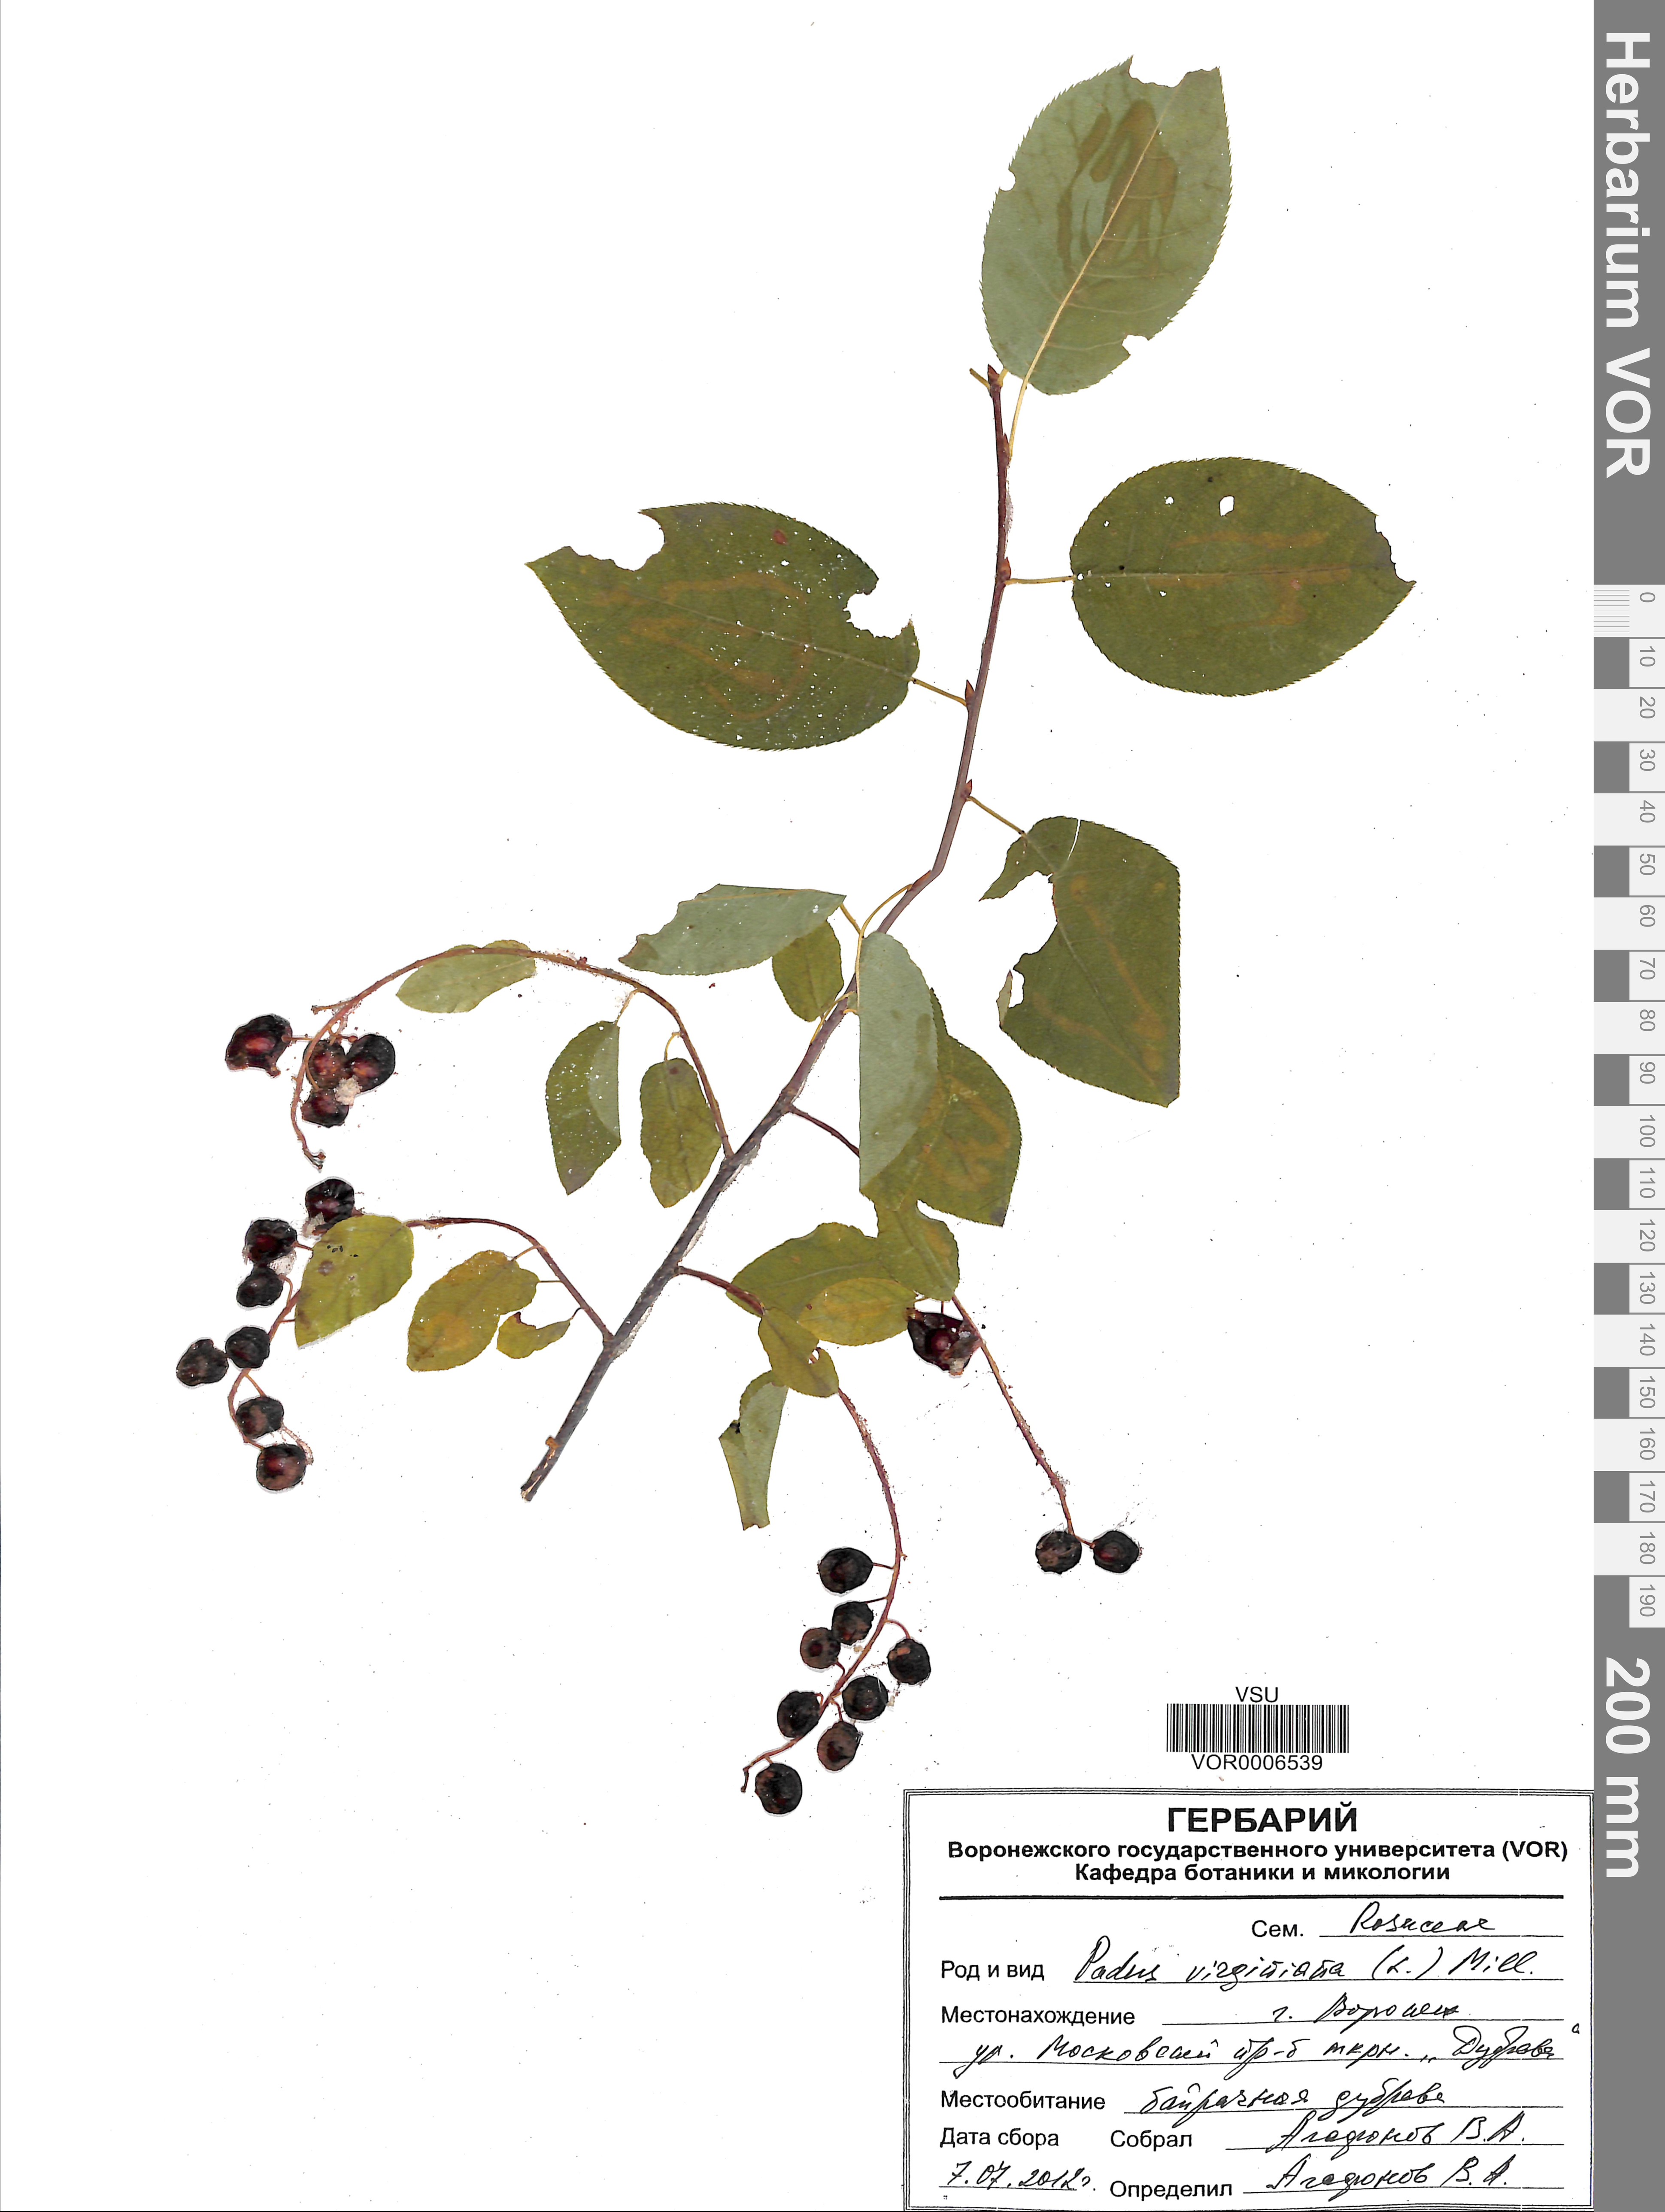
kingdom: Plantae
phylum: Tracheophyta
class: Magnoliopsida
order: Rosales
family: Rosaceae
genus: Prunus
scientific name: Prunus virginiana
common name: Chokecherry
